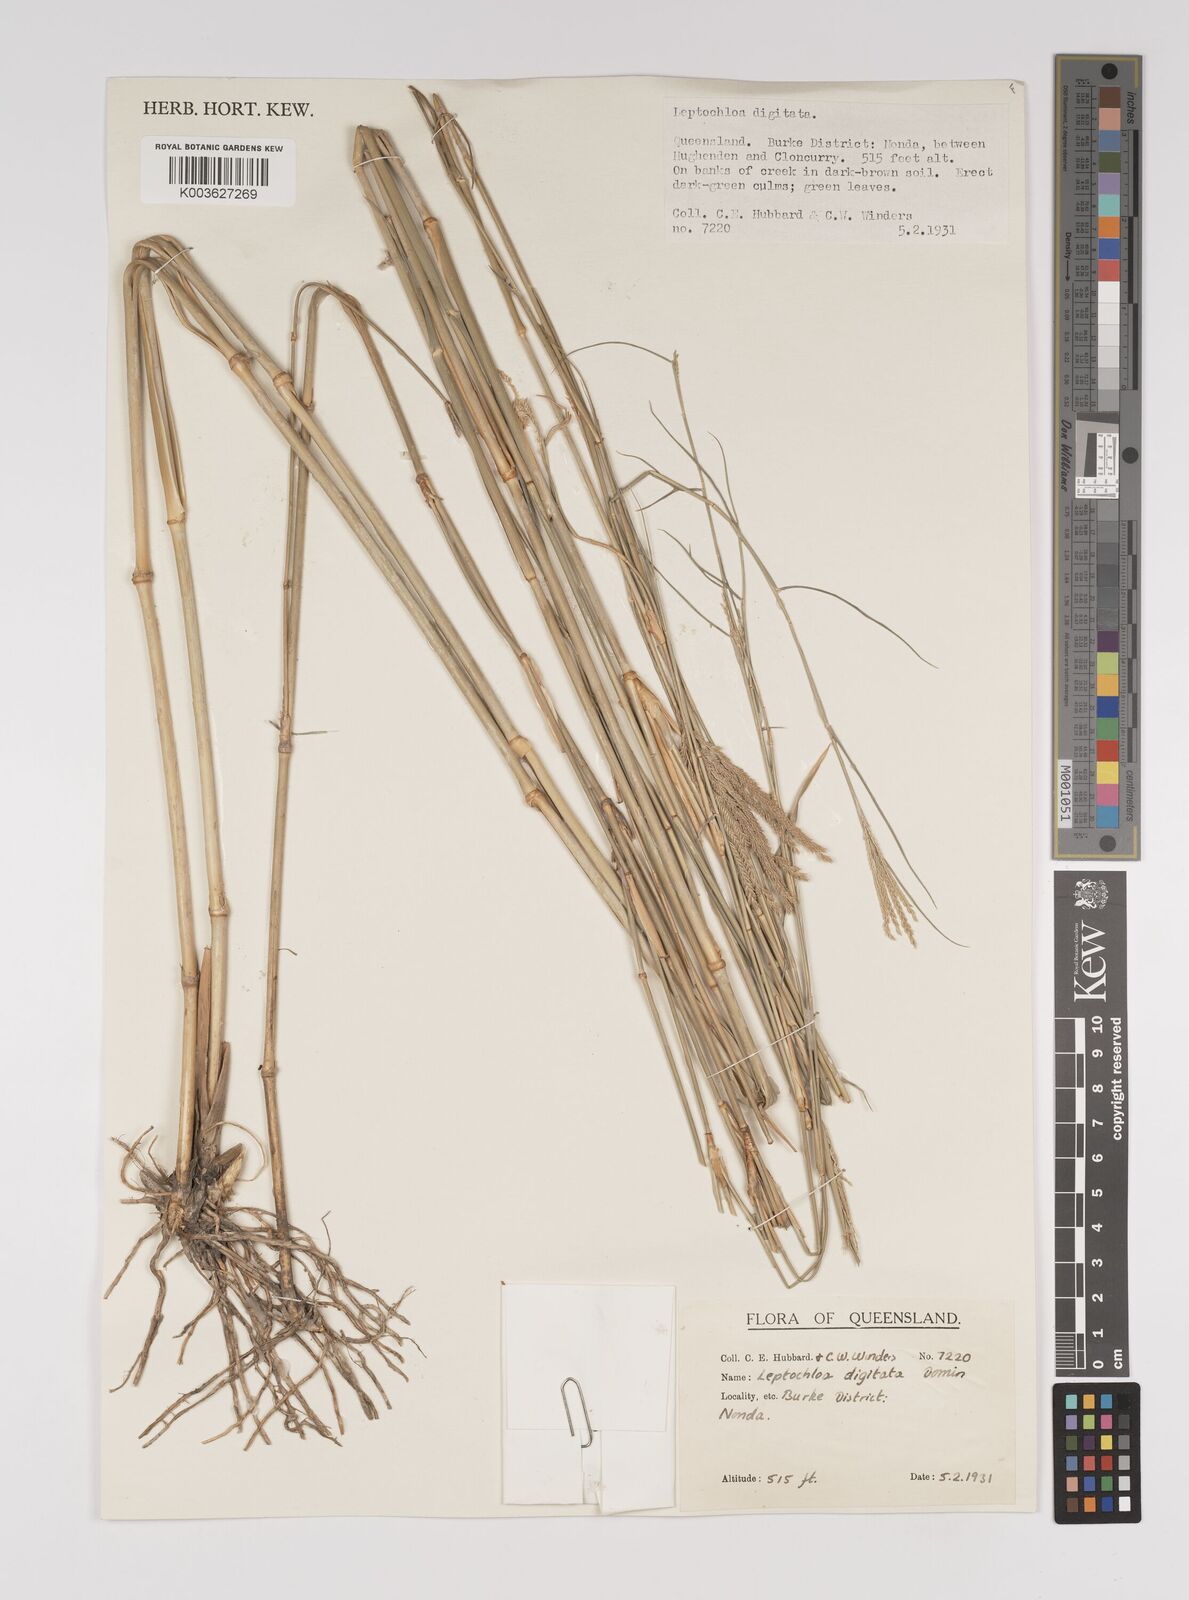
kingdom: Plantae
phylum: Tracheophyta
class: Liliopsida
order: Poales
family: Poaceae
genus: Leptochloa
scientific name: Leptochloa digitata
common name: Finger sprangletop
